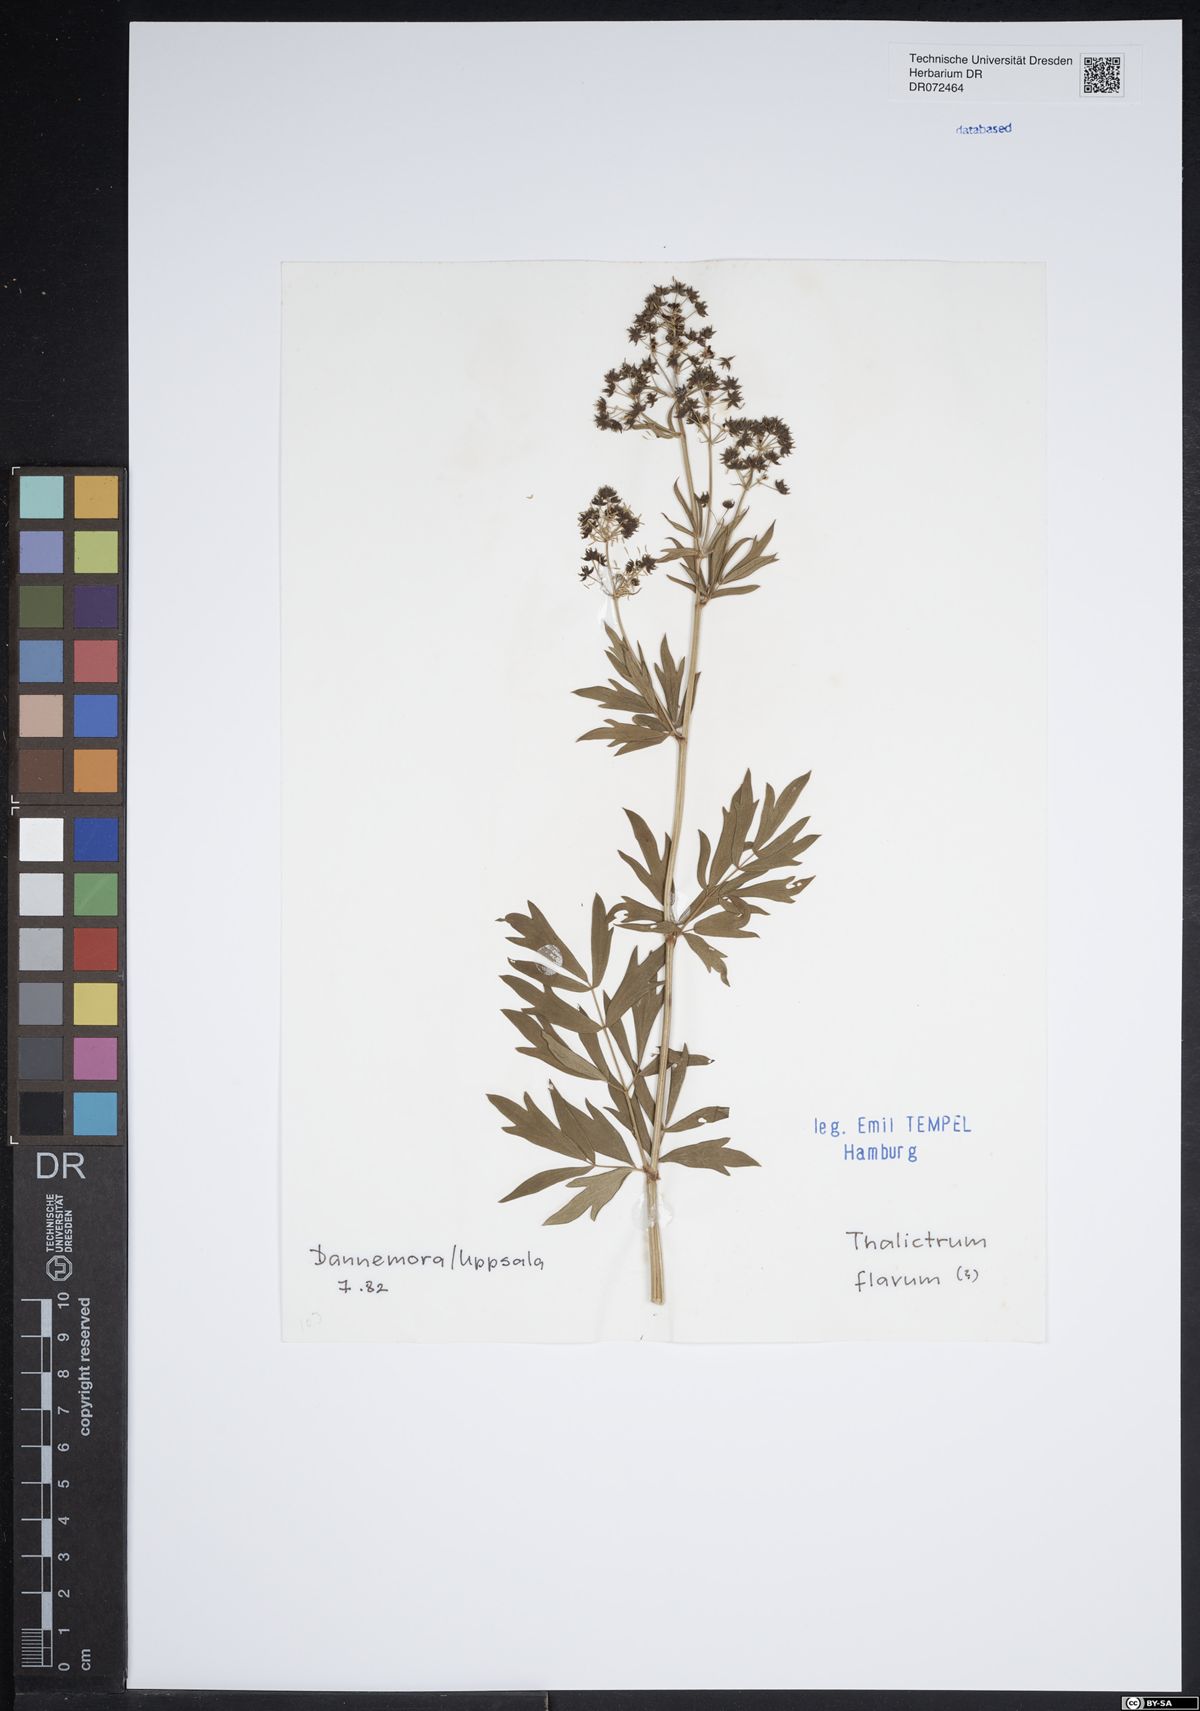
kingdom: Plantae
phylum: Tracheophyta
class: Magnoliopsida
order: Ranunculales
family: Ranunculaceae
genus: Thalictrum
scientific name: Thalictrum flavum
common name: Common meadow-rue
